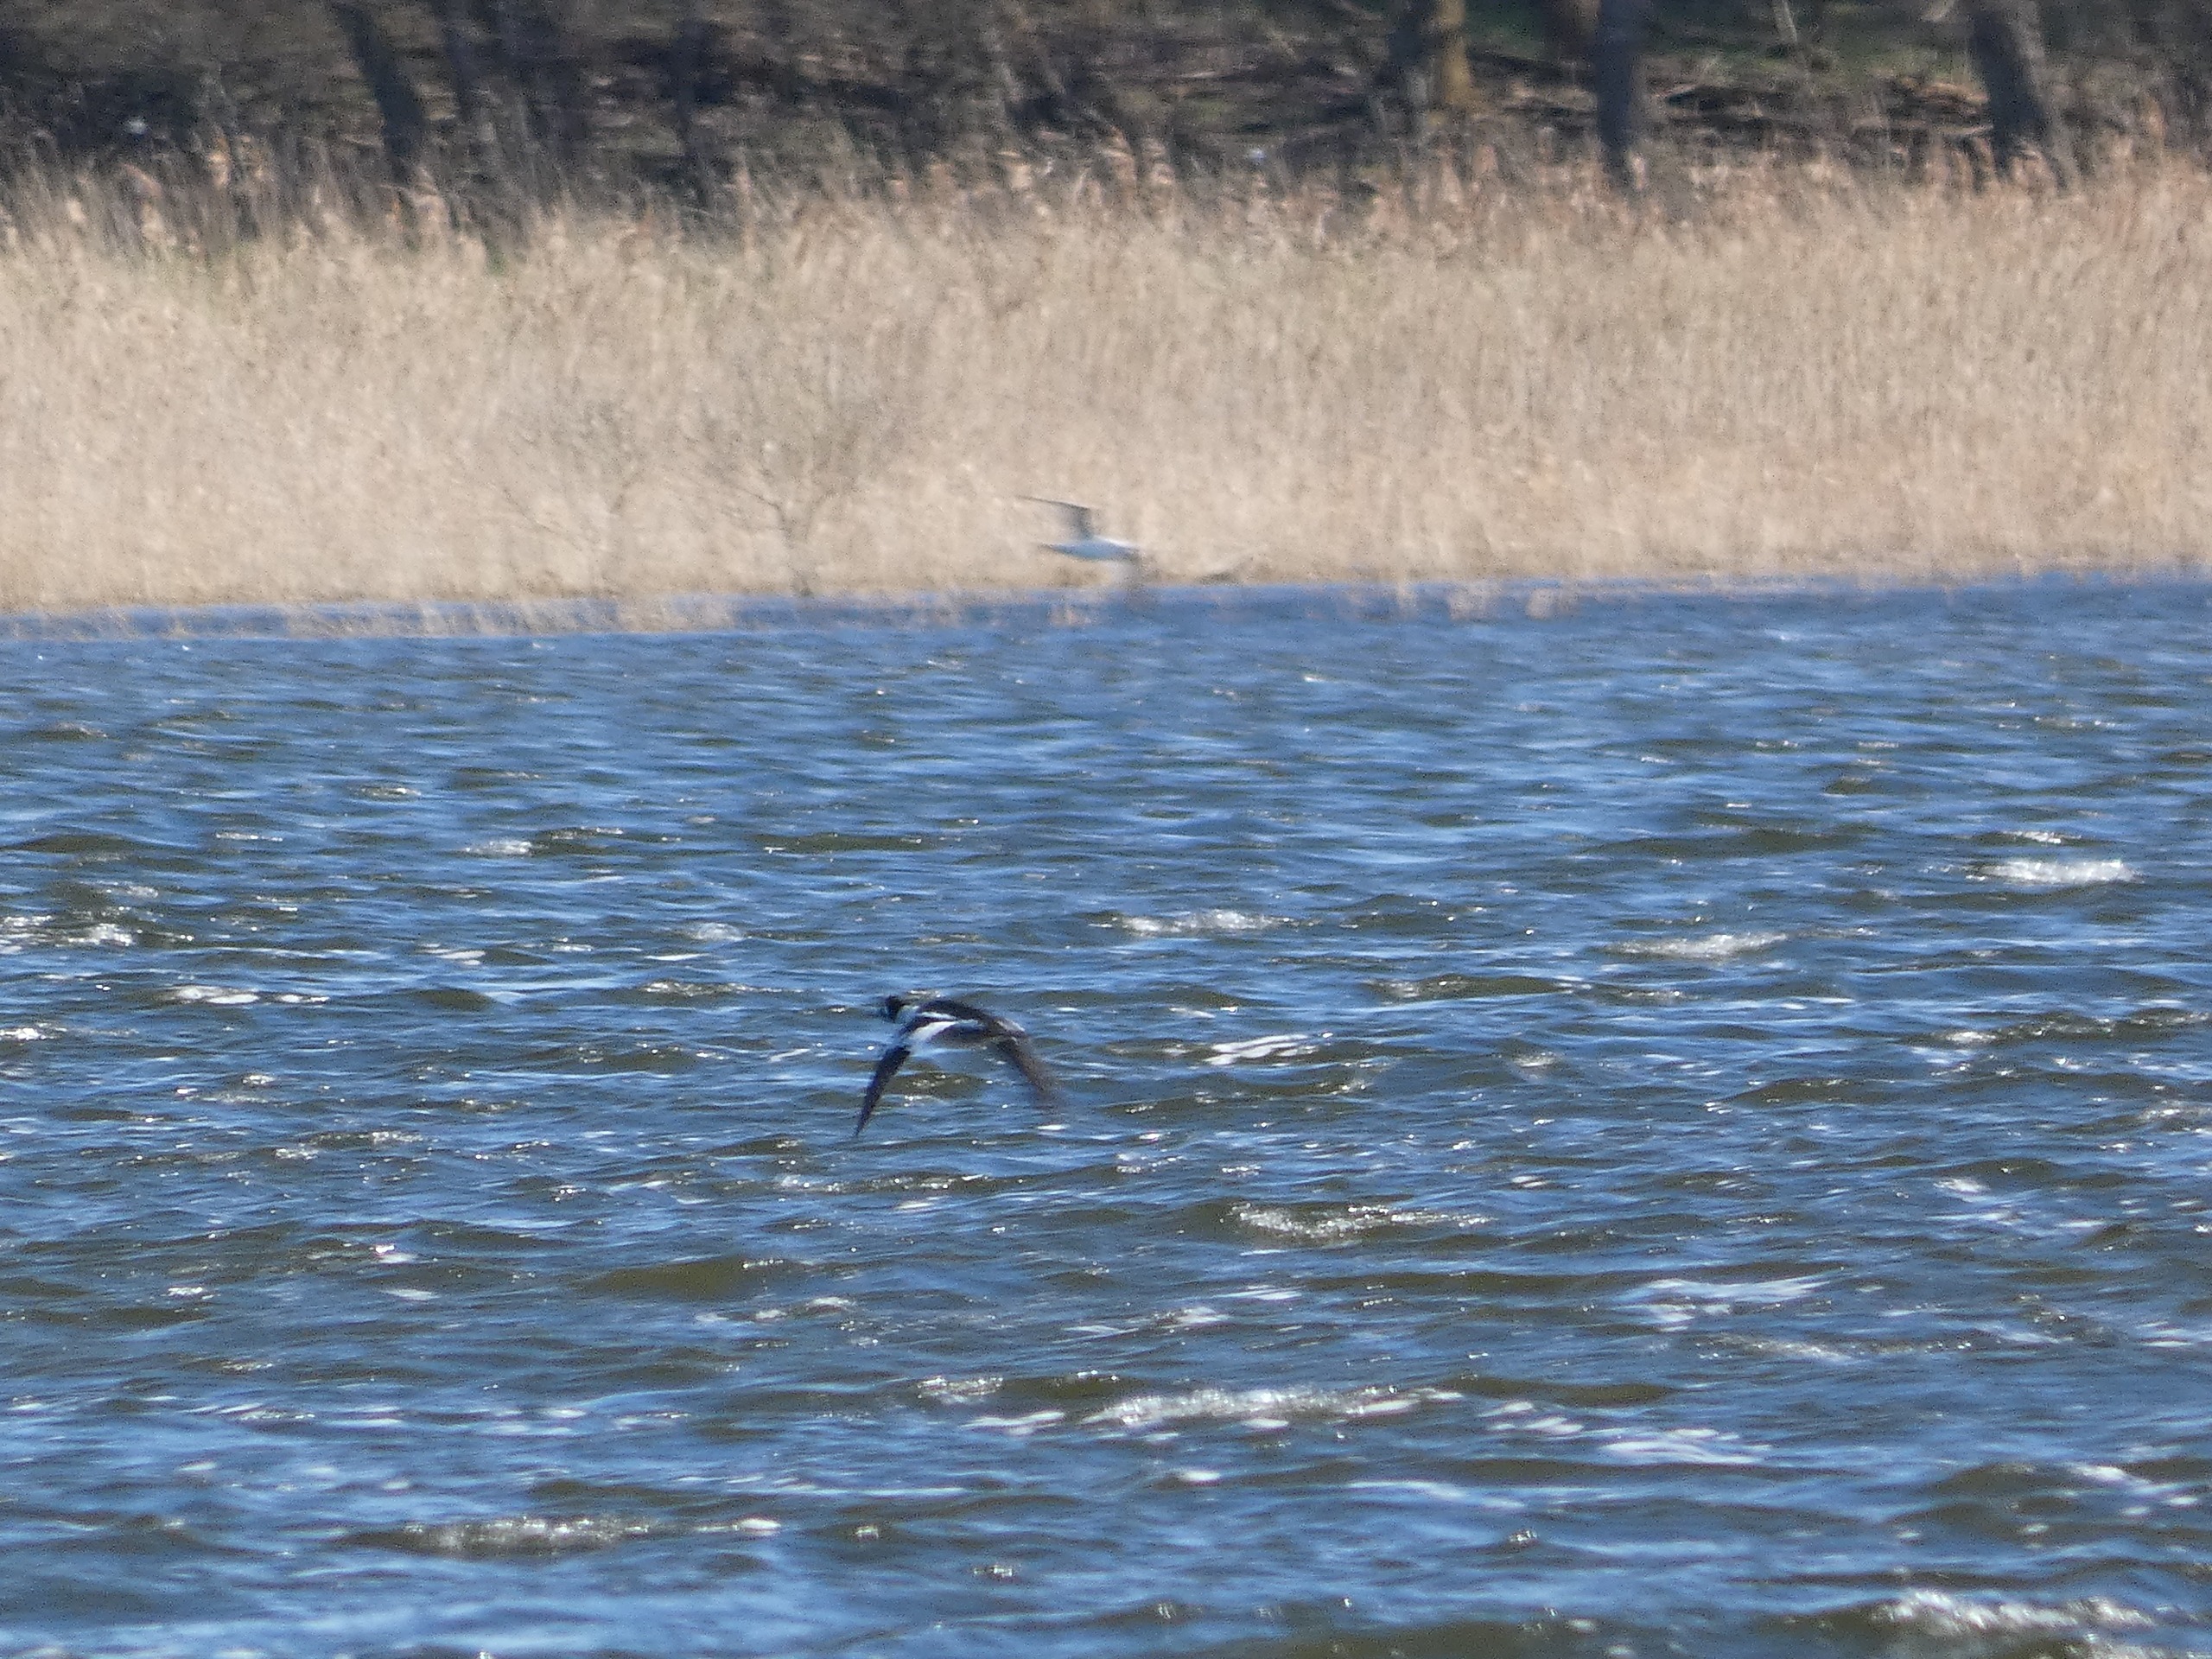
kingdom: Animalia
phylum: Chordata
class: Aves
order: Anseriformes
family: Anatidae
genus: Bucephala
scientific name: Bucephala clangula
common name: Hvinand
